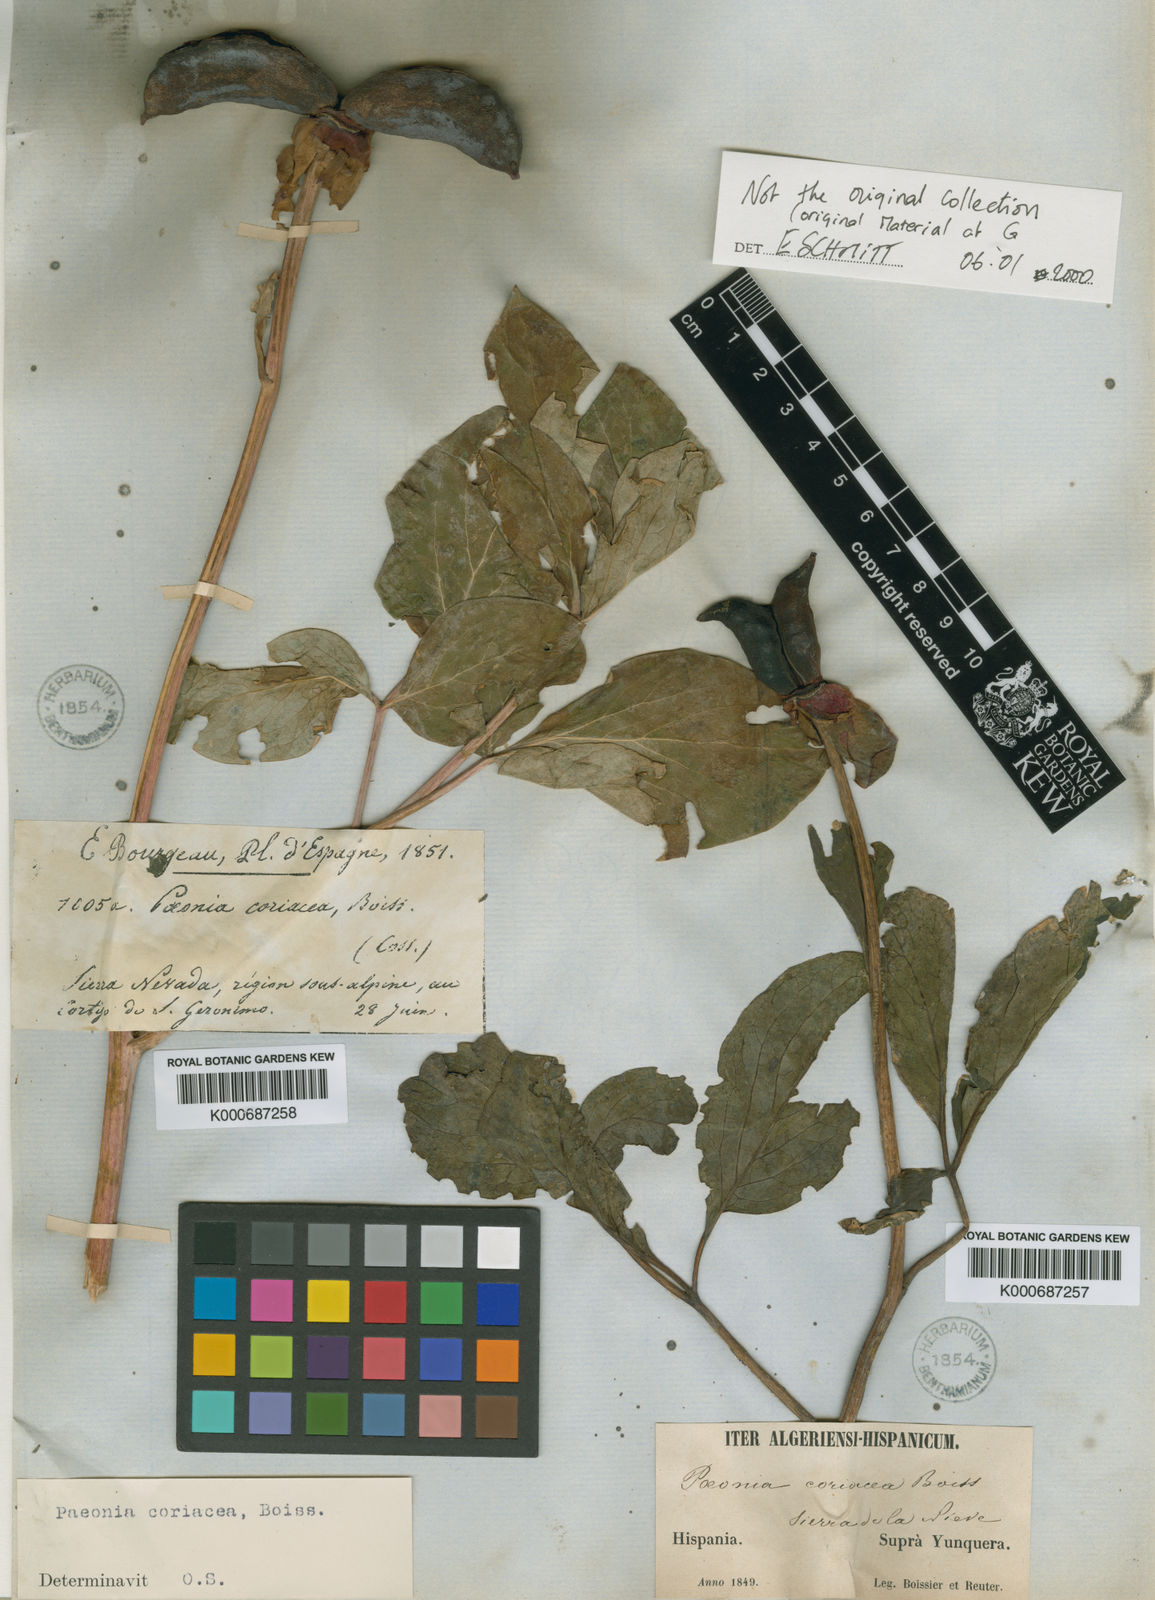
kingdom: Plantae
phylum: Tracheophyta
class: Magnoliopsida
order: Saxifragales
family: Paeoniaceae
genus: Paeonia
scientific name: Paeonia
